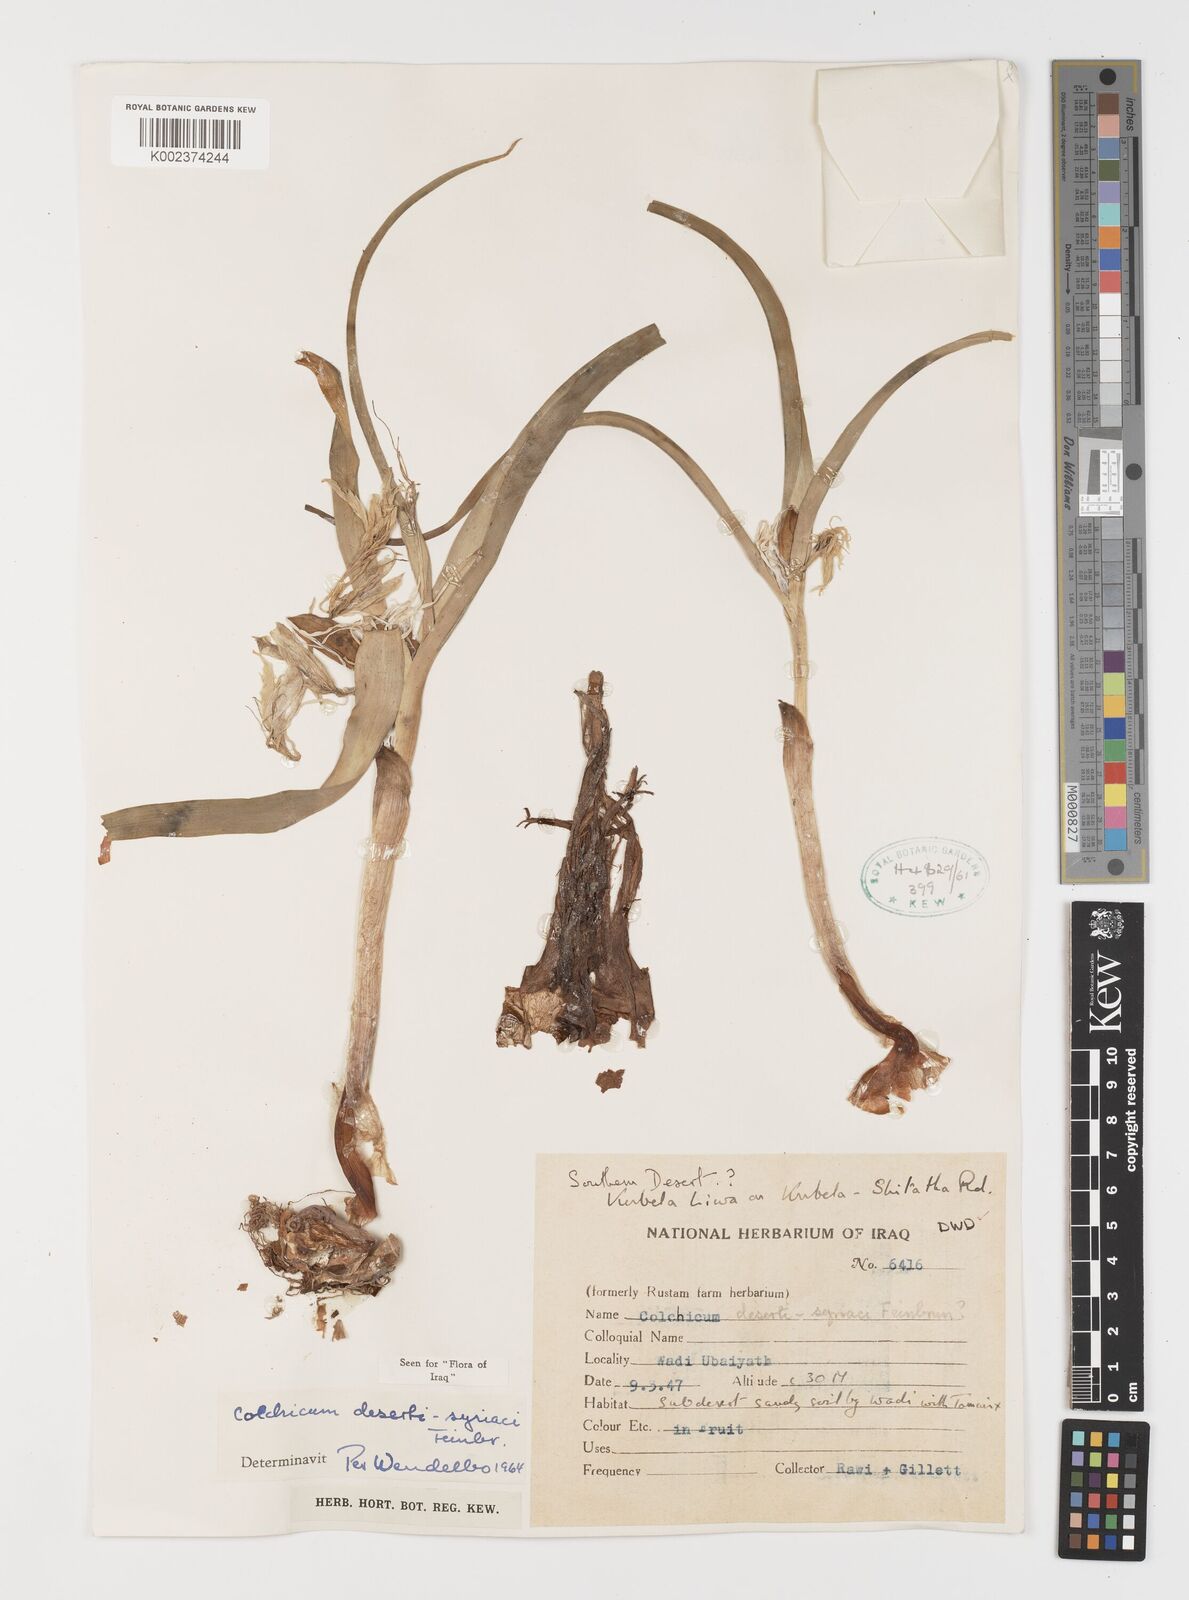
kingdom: Plantae
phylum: Tracheophyta
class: Liliopsida
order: Liliales
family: Colchicaceae
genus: Colchicum
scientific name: Colchicum schimperi
